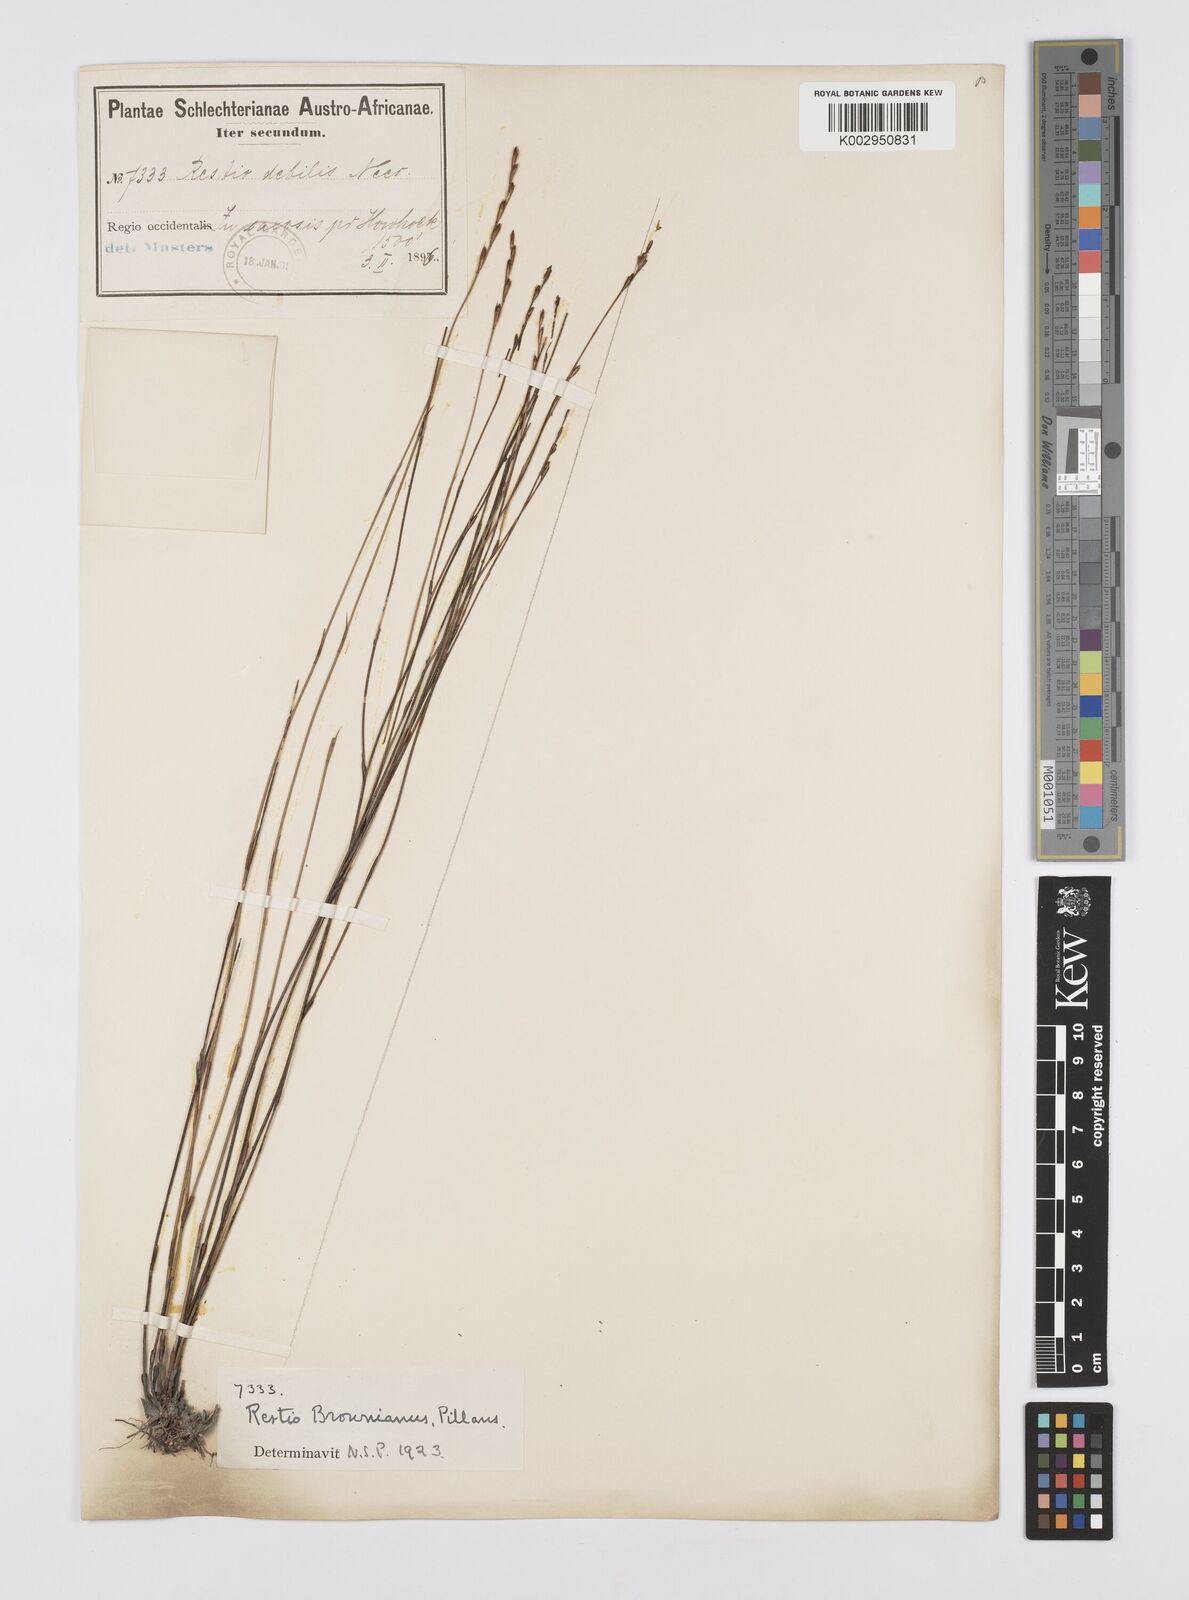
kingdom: Plantae
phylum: Tracheophyta
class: Liliopsida
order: Poales
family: Restionaceae
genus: Restio
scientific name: Restio debilis
